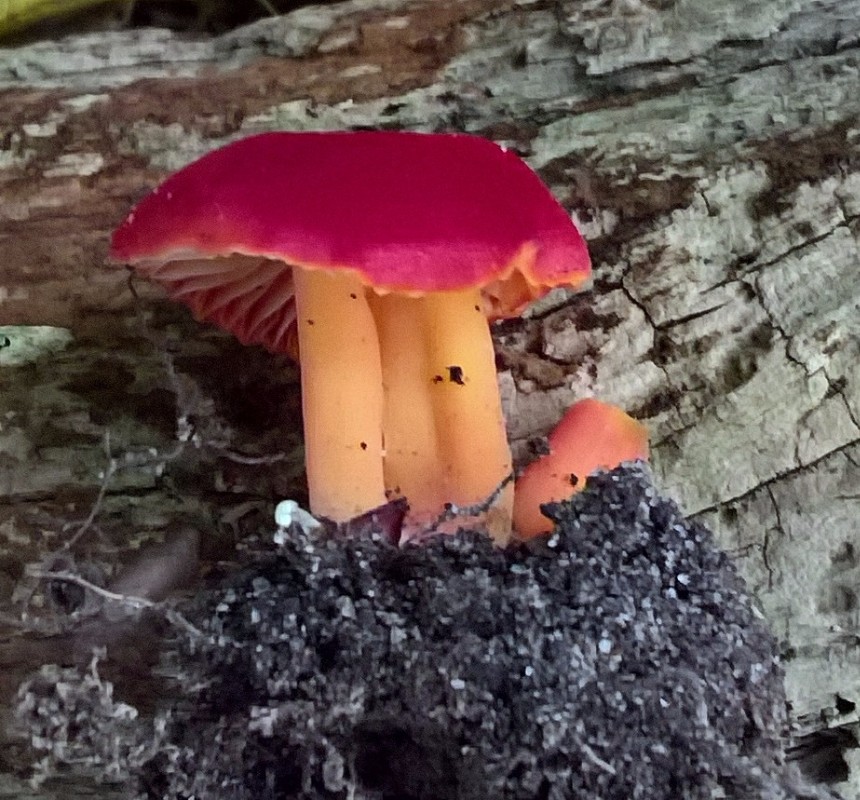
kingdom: Fungi
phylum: Basidiomycota
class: Agaricomycetes
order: Agaricales
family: Hygrophoraceae
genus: Hygrocybe
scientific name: Hygrocybe coccinea
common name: cinnober-vokshat
